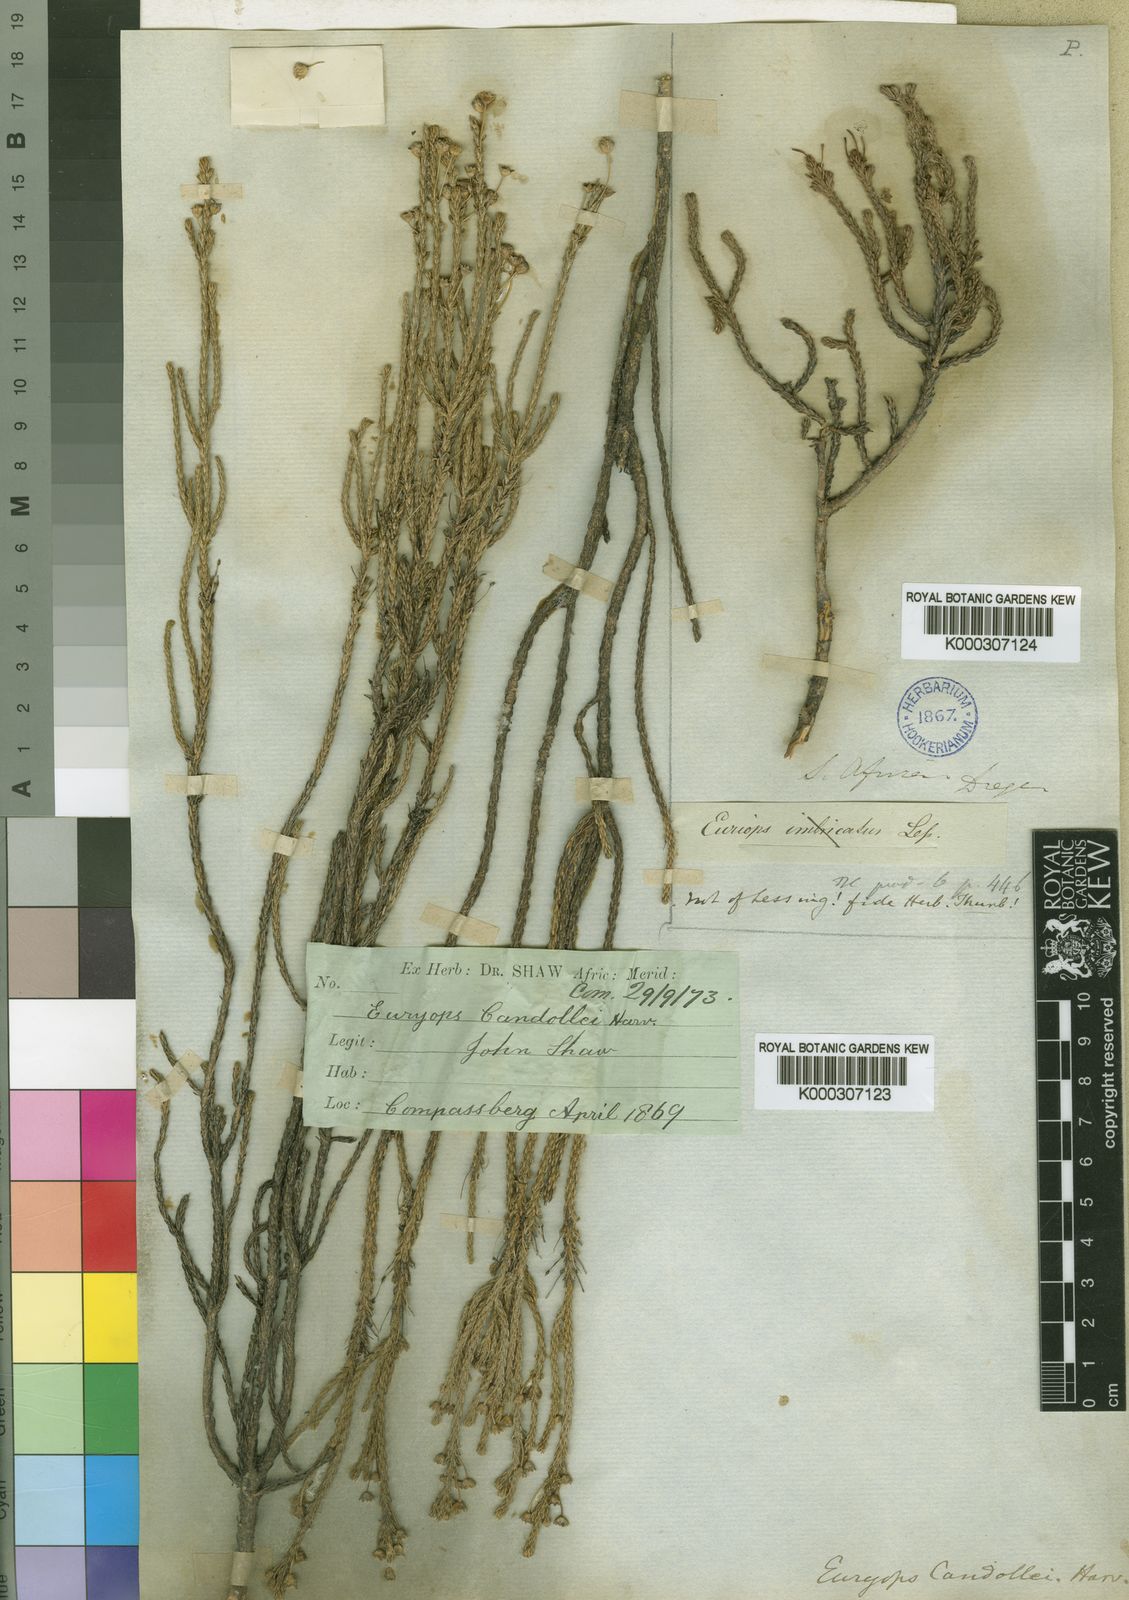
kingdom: Plantae
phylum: Tracheophyta
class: Magnoliopsida
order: Asterales
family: Asteraceae
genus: Euryops
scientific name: Euryops candollei
